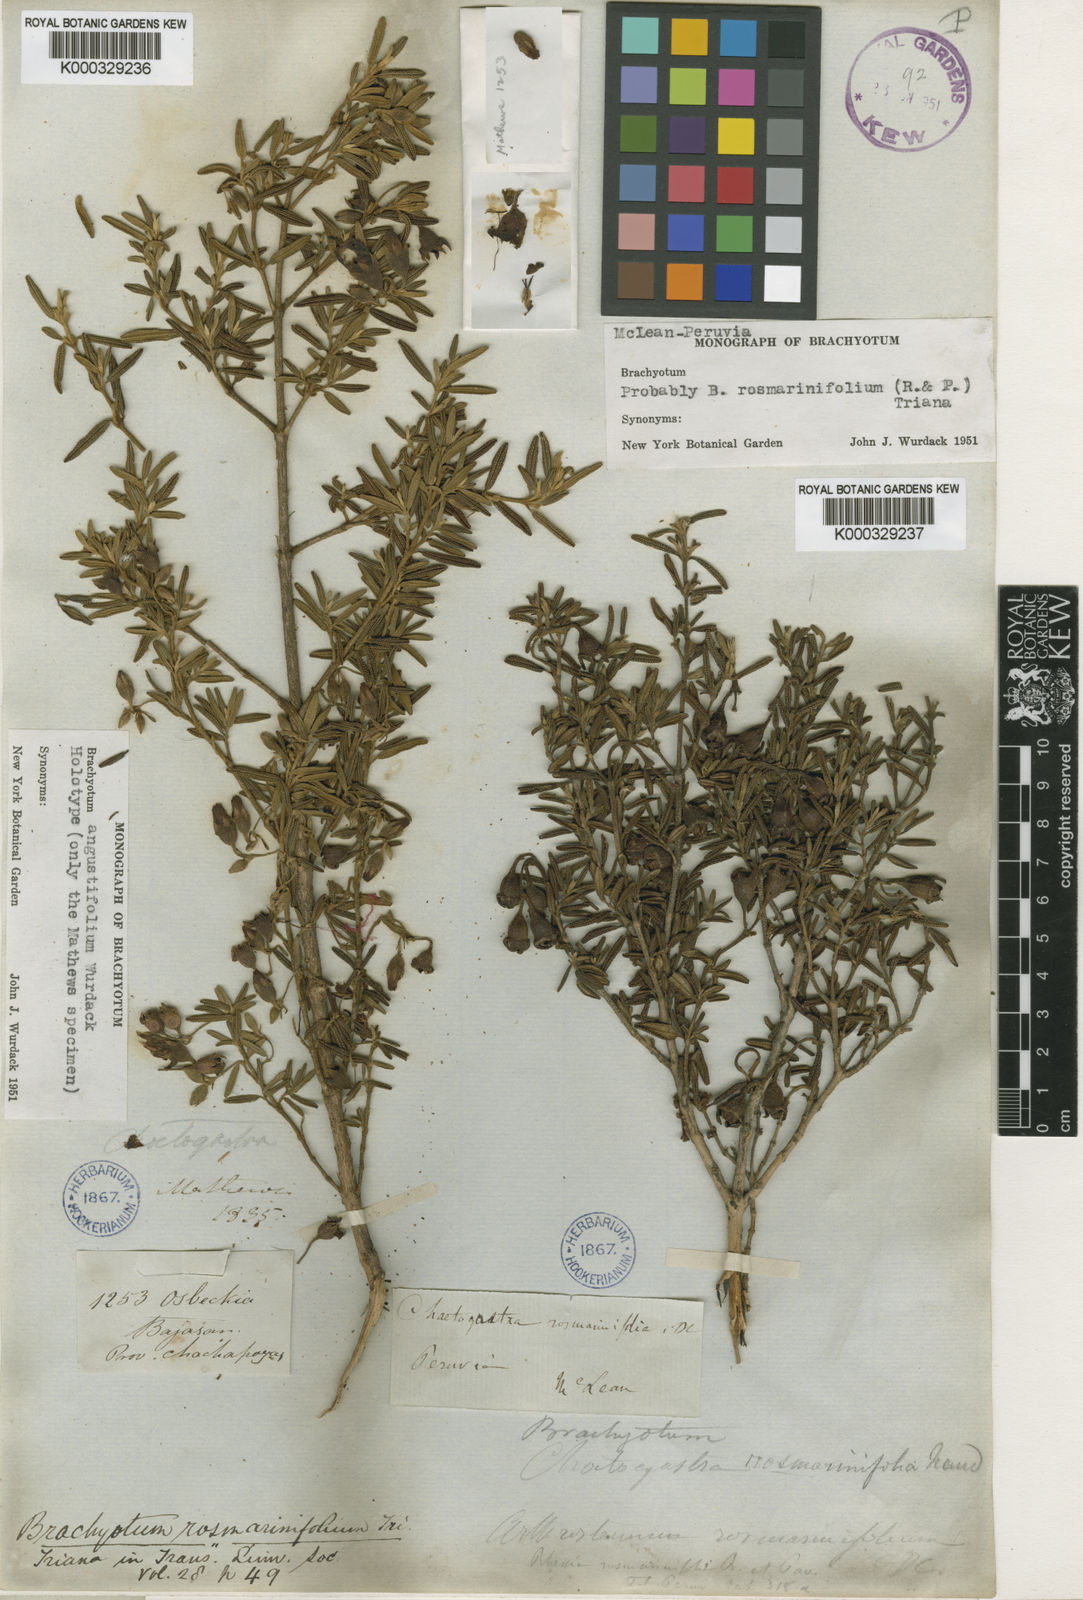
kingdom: Plantae
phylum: Tracheophyta
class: Magnoliopsida
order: Myrtales
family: Melastomataceae
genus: Brachyotum
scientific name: Brachyotum rosmarinifolium
